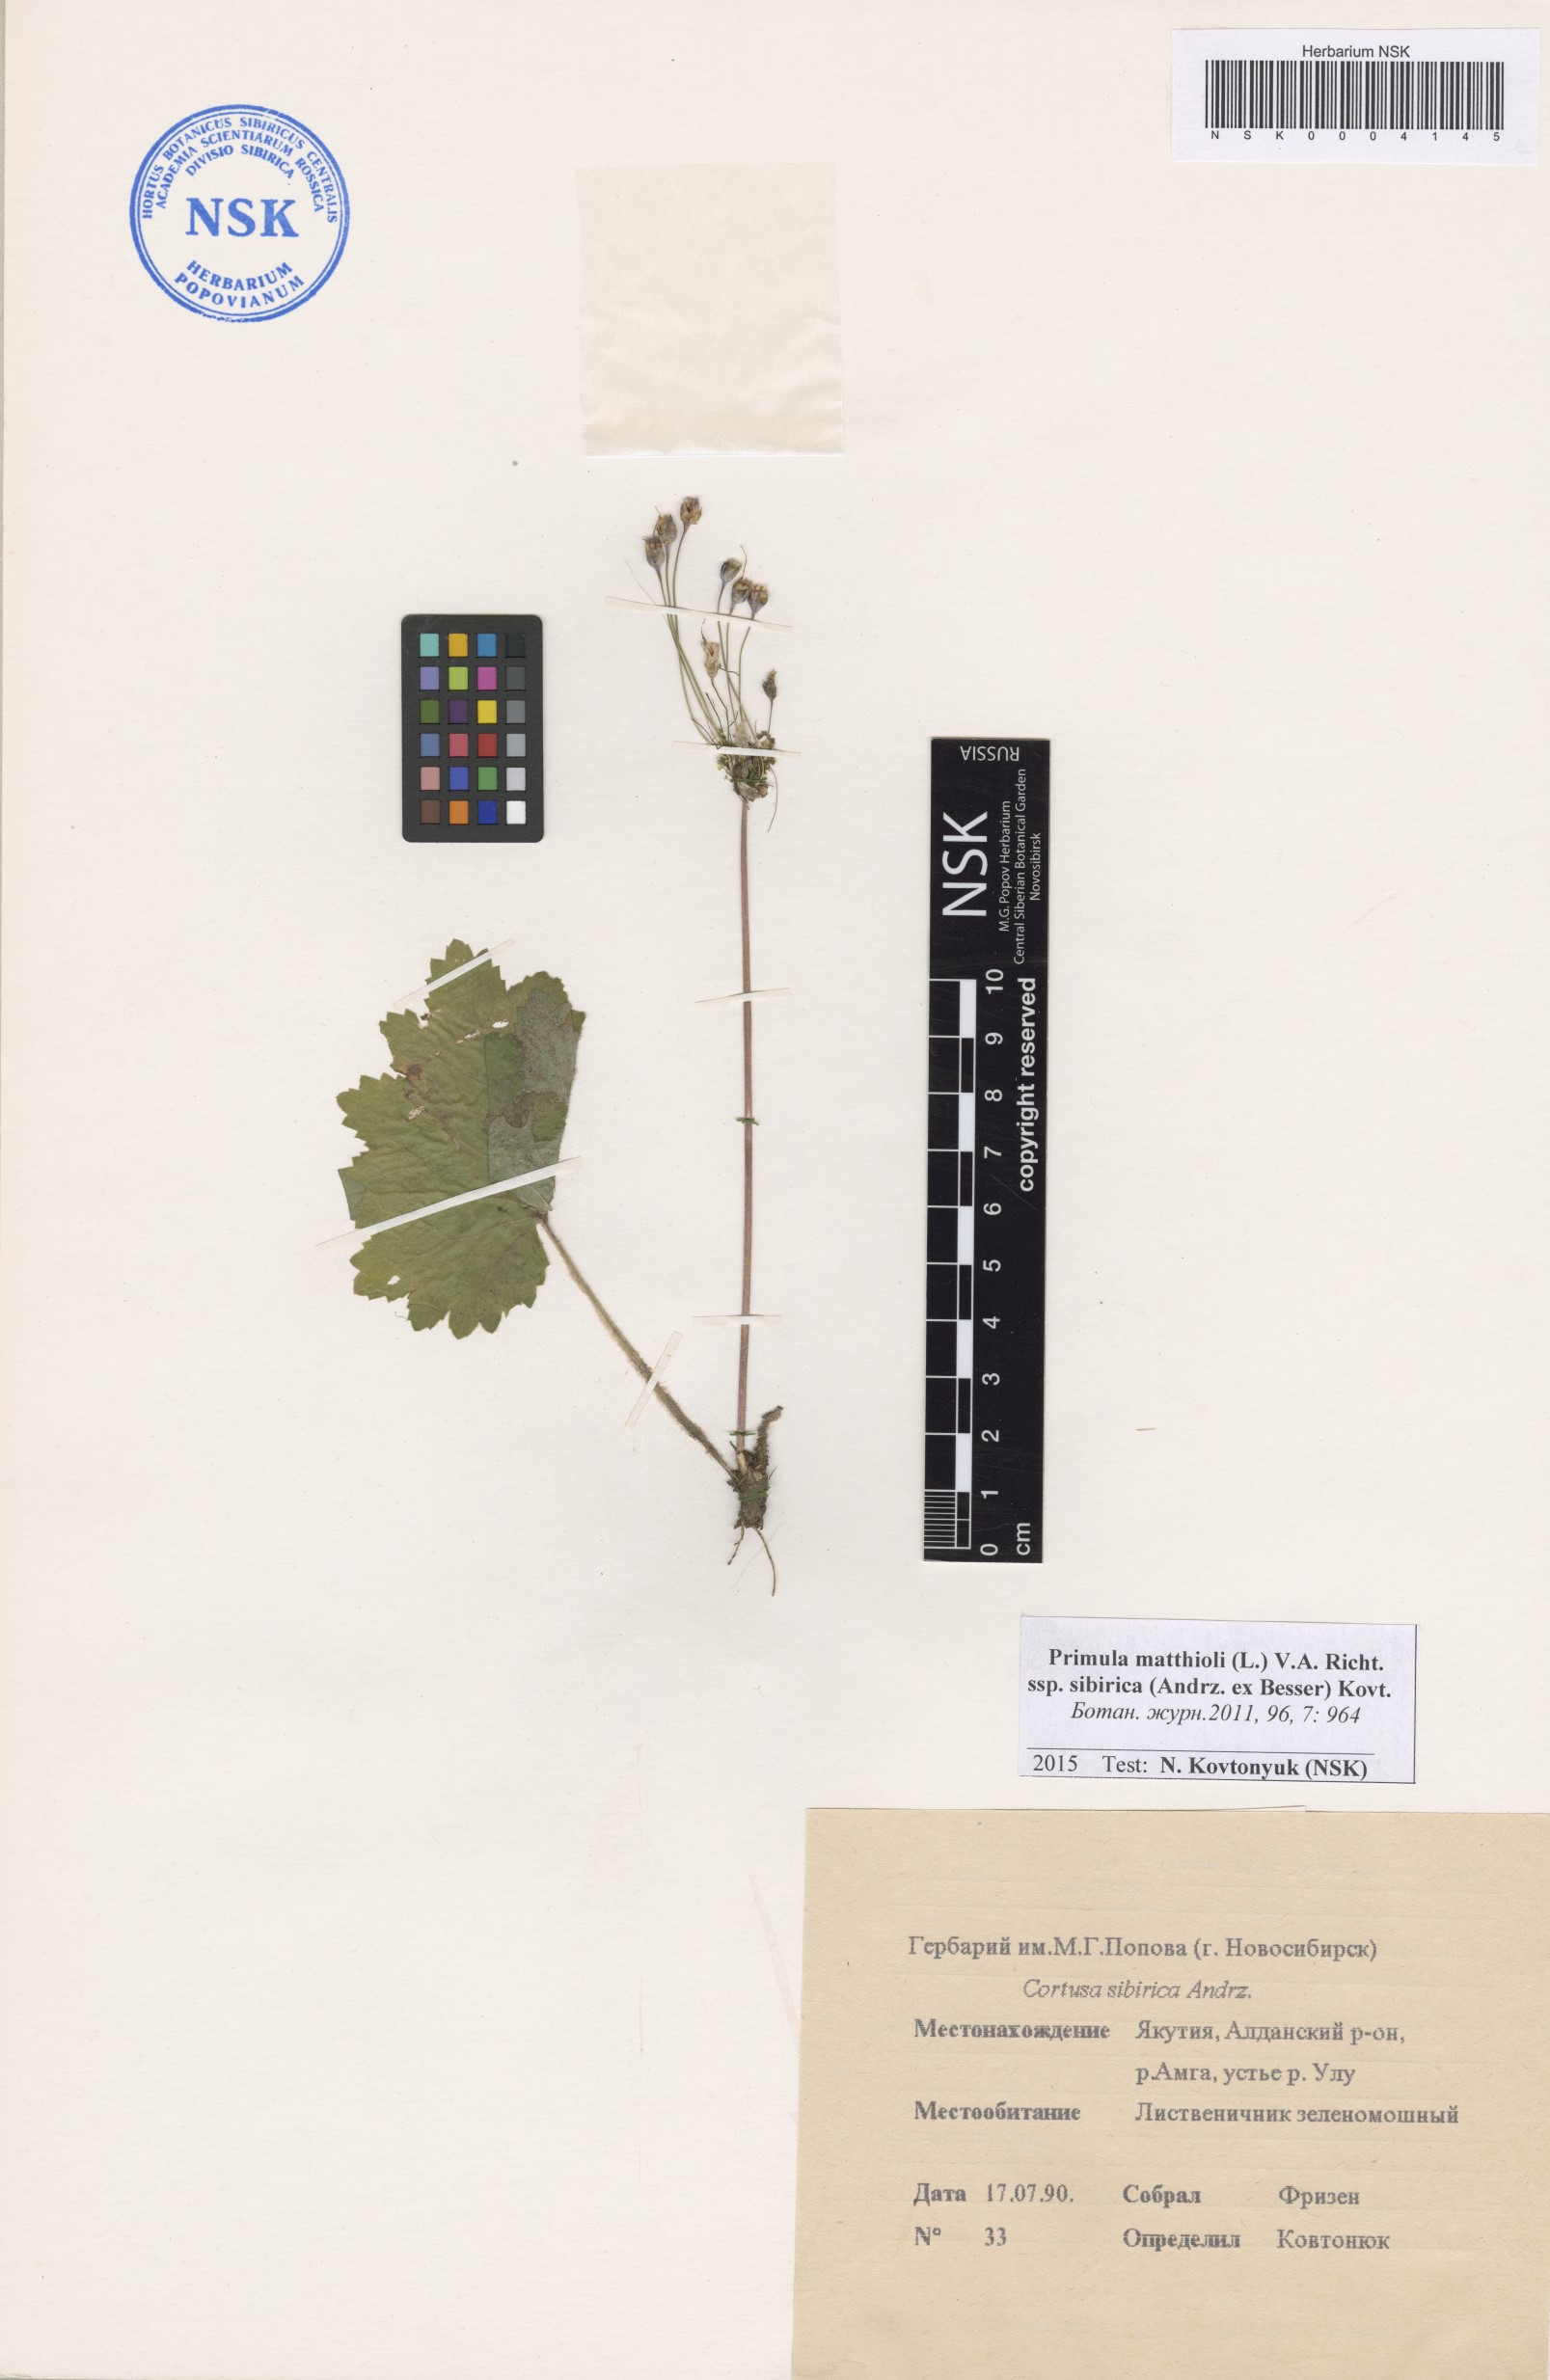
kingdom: Plantae
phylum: Tracheophyta
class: Magnoliopsida
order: Ericales
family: Primulaceae
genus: Primula
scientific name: Primula matthioli
